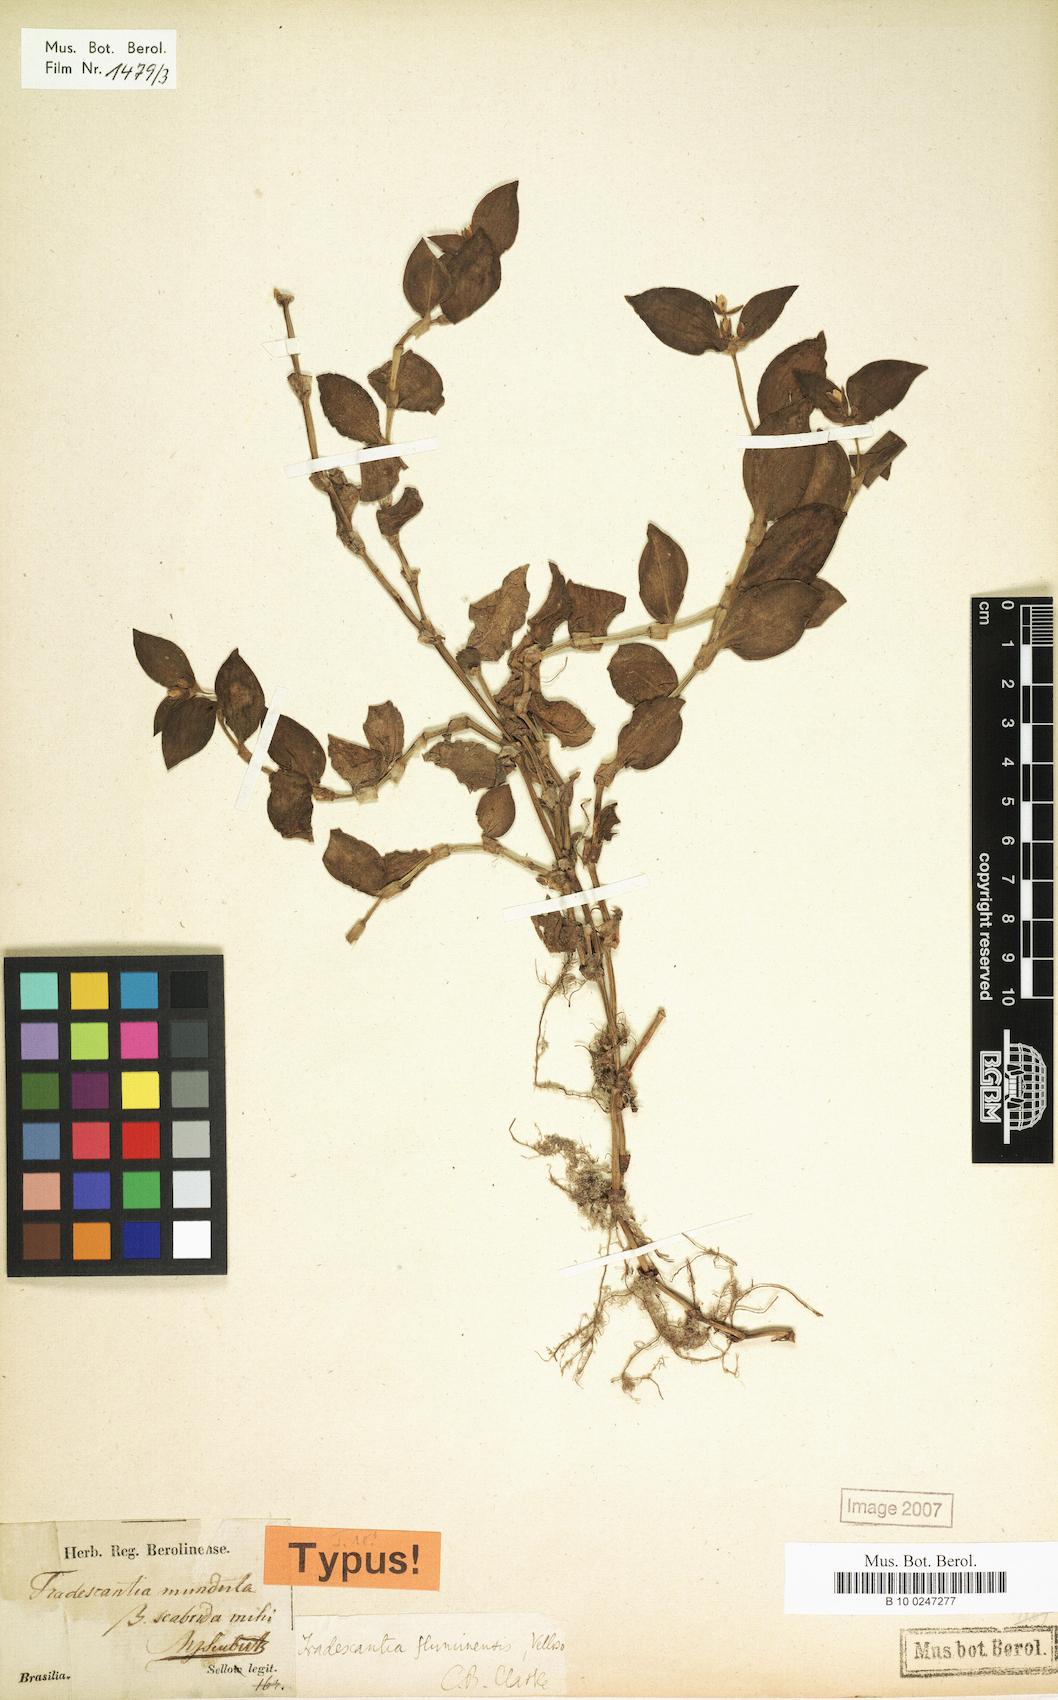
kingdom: Plantae
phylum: Tracheophyta
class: Liliopsida
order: Commelinales
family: Commelinaceae
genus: Tradescantia
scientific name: Tradescantia cymbispatha
